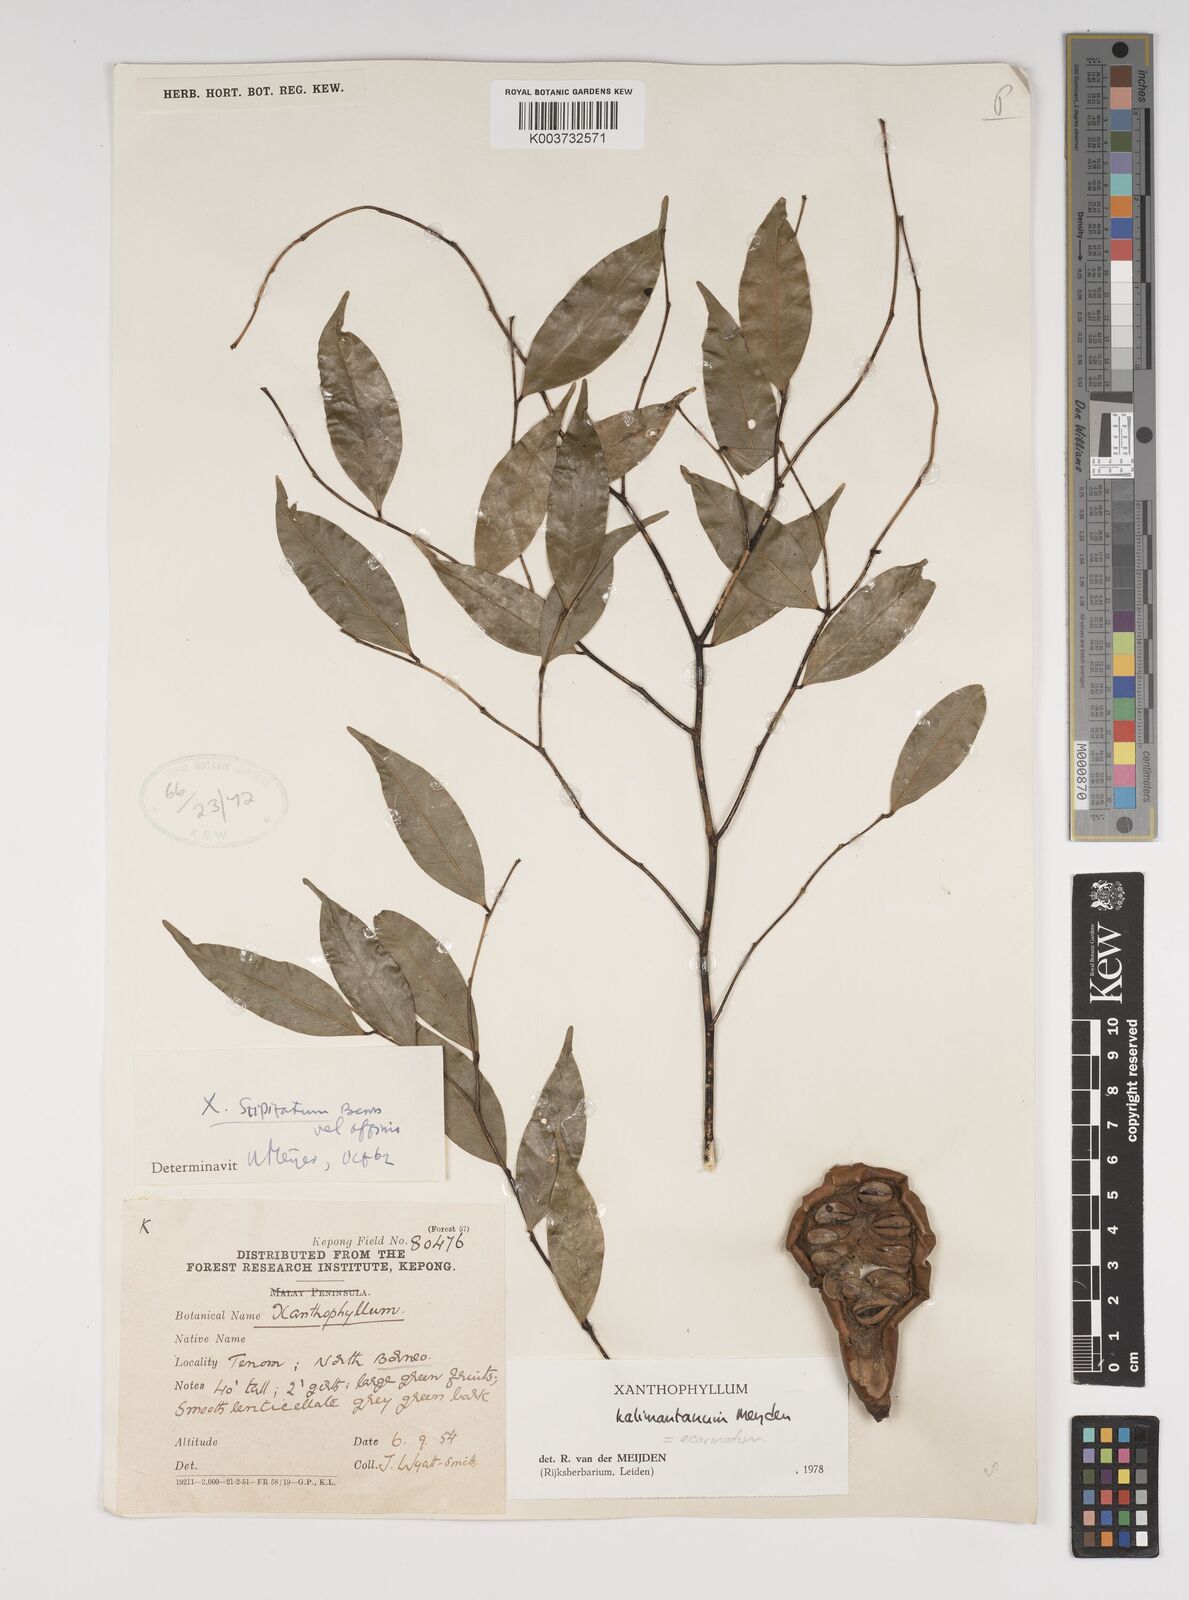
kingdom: Plantae
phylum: Tracheophyta
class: Magnoliopsida
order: Fabales
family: Polygalaceae
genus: Xanthophyllum
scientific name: Xanthophyllum ecarinatum
